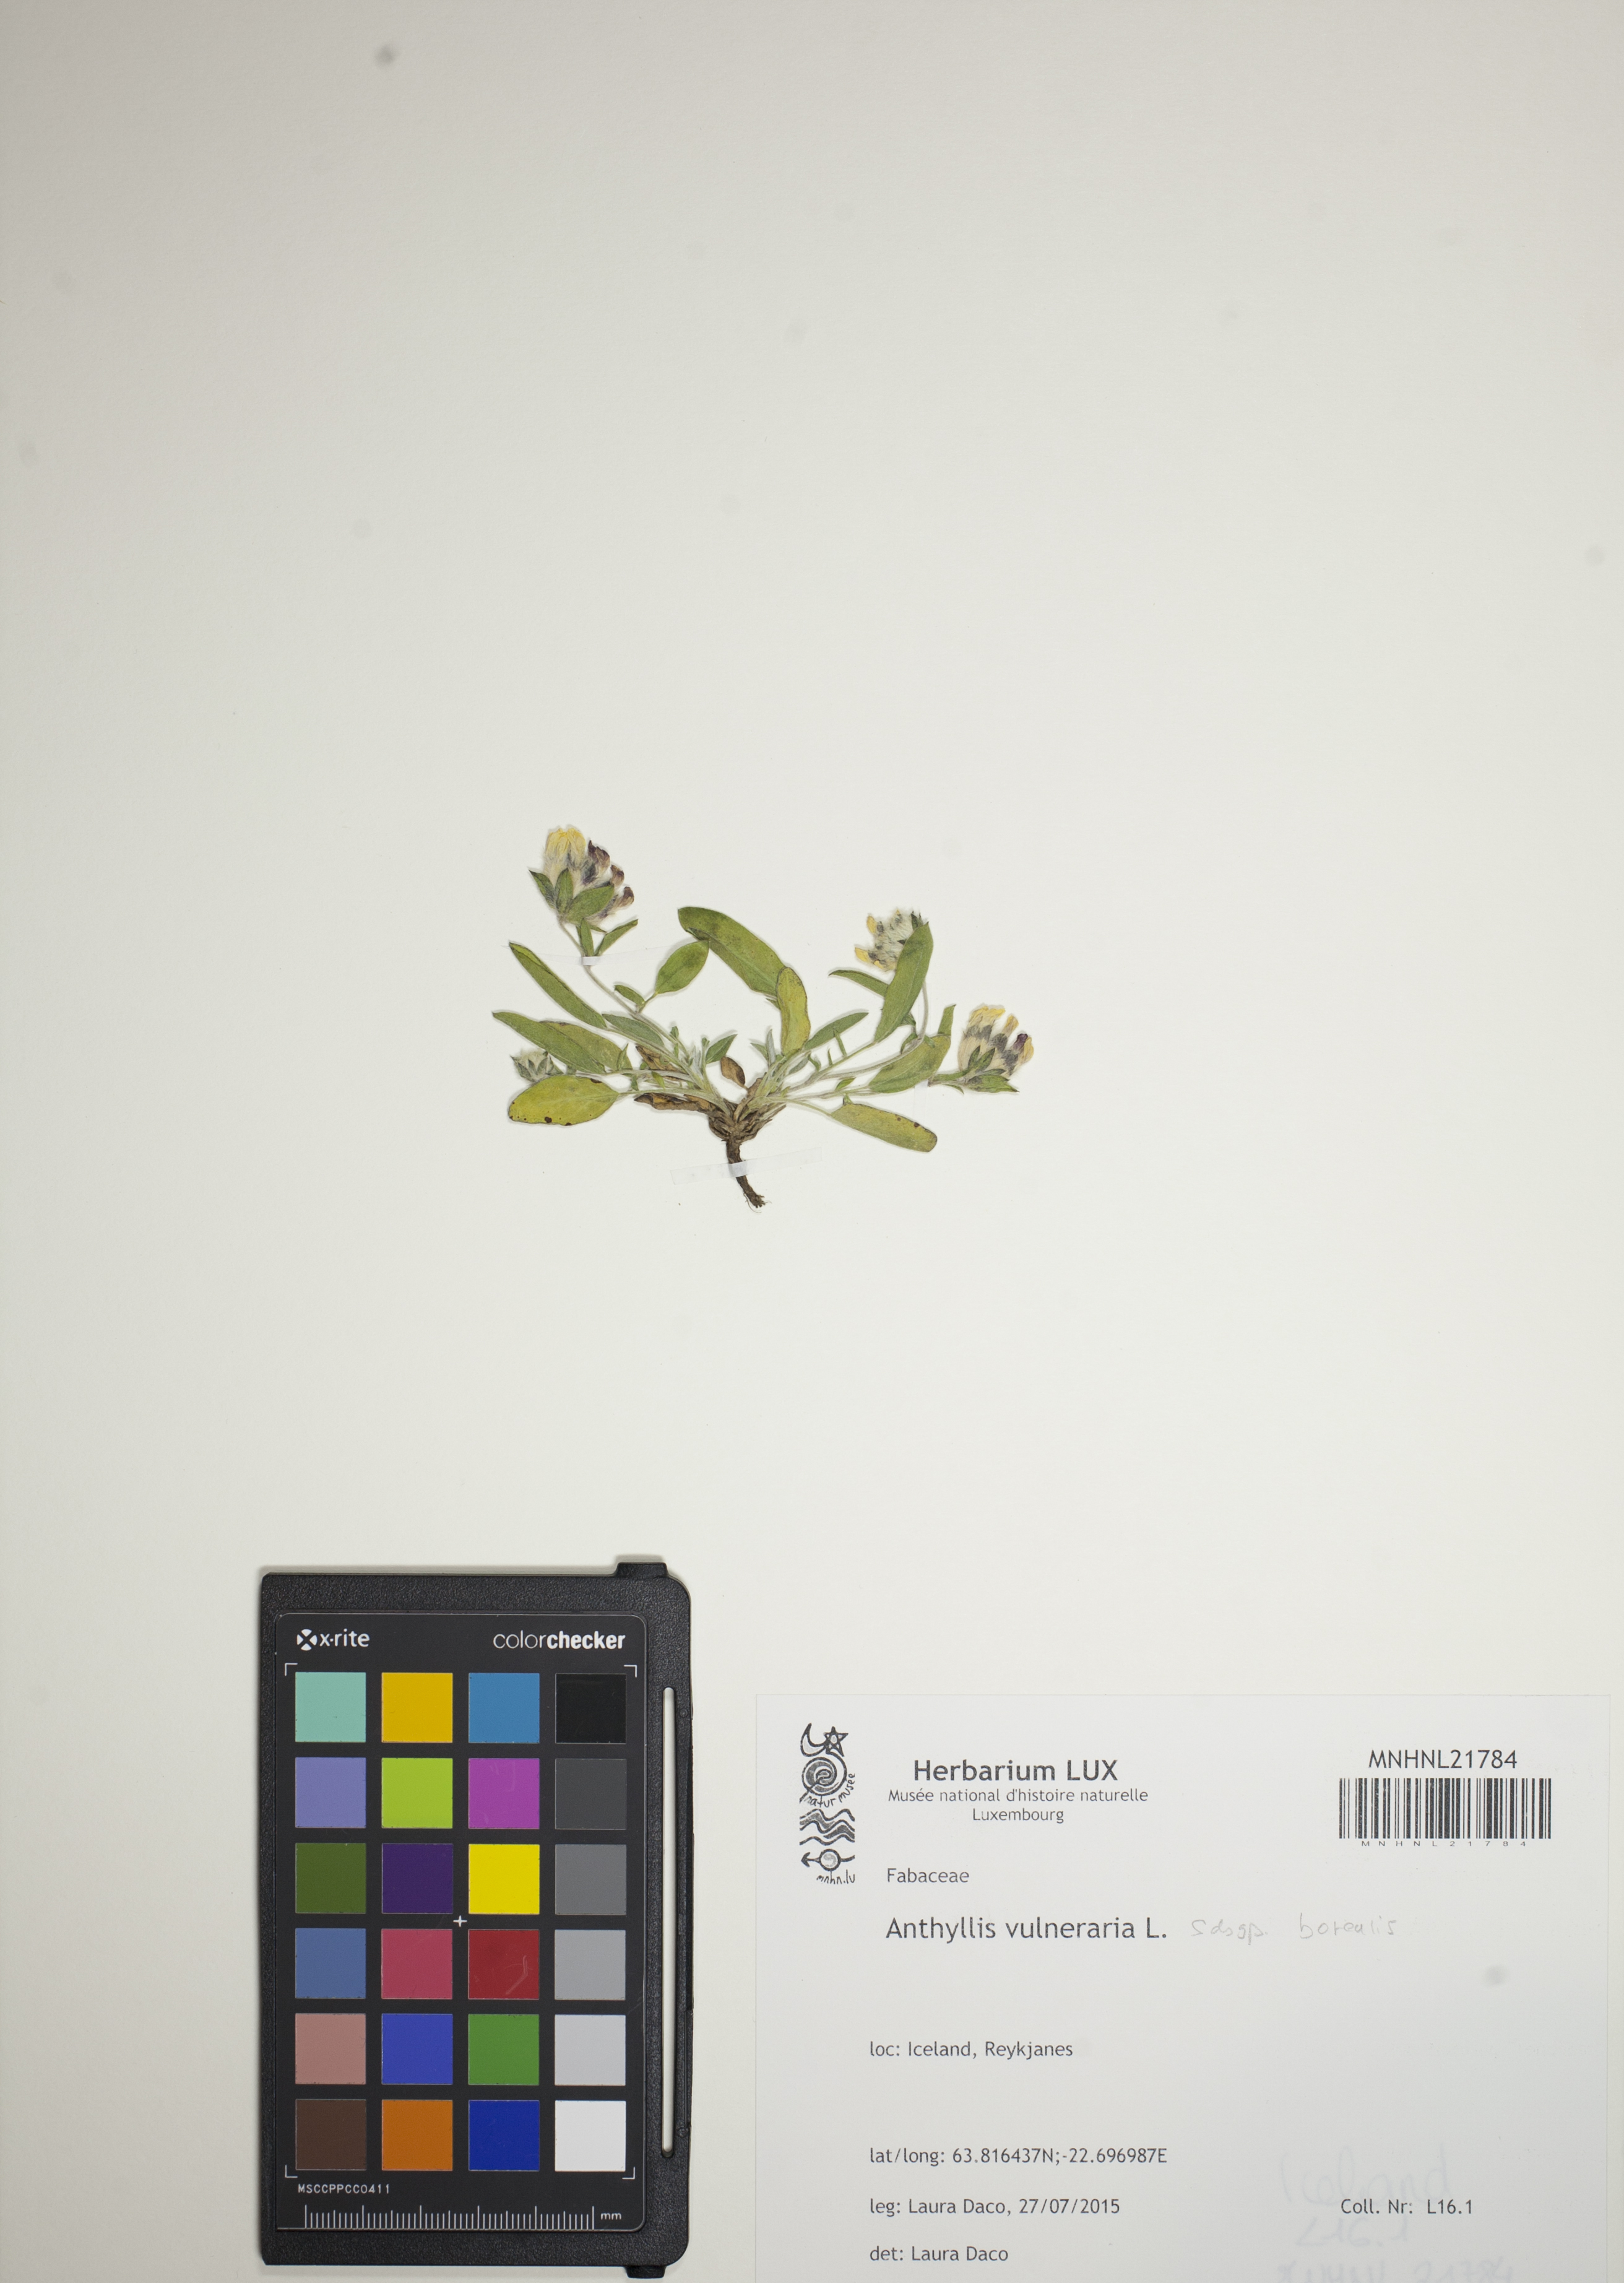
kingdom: Plantae
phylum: Tracheophyta
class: Magnoliopsida
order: Fabales
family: Fabaceae
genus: Anthyllis
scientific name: Anthyllis vulneraria
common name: Kidney vetch
